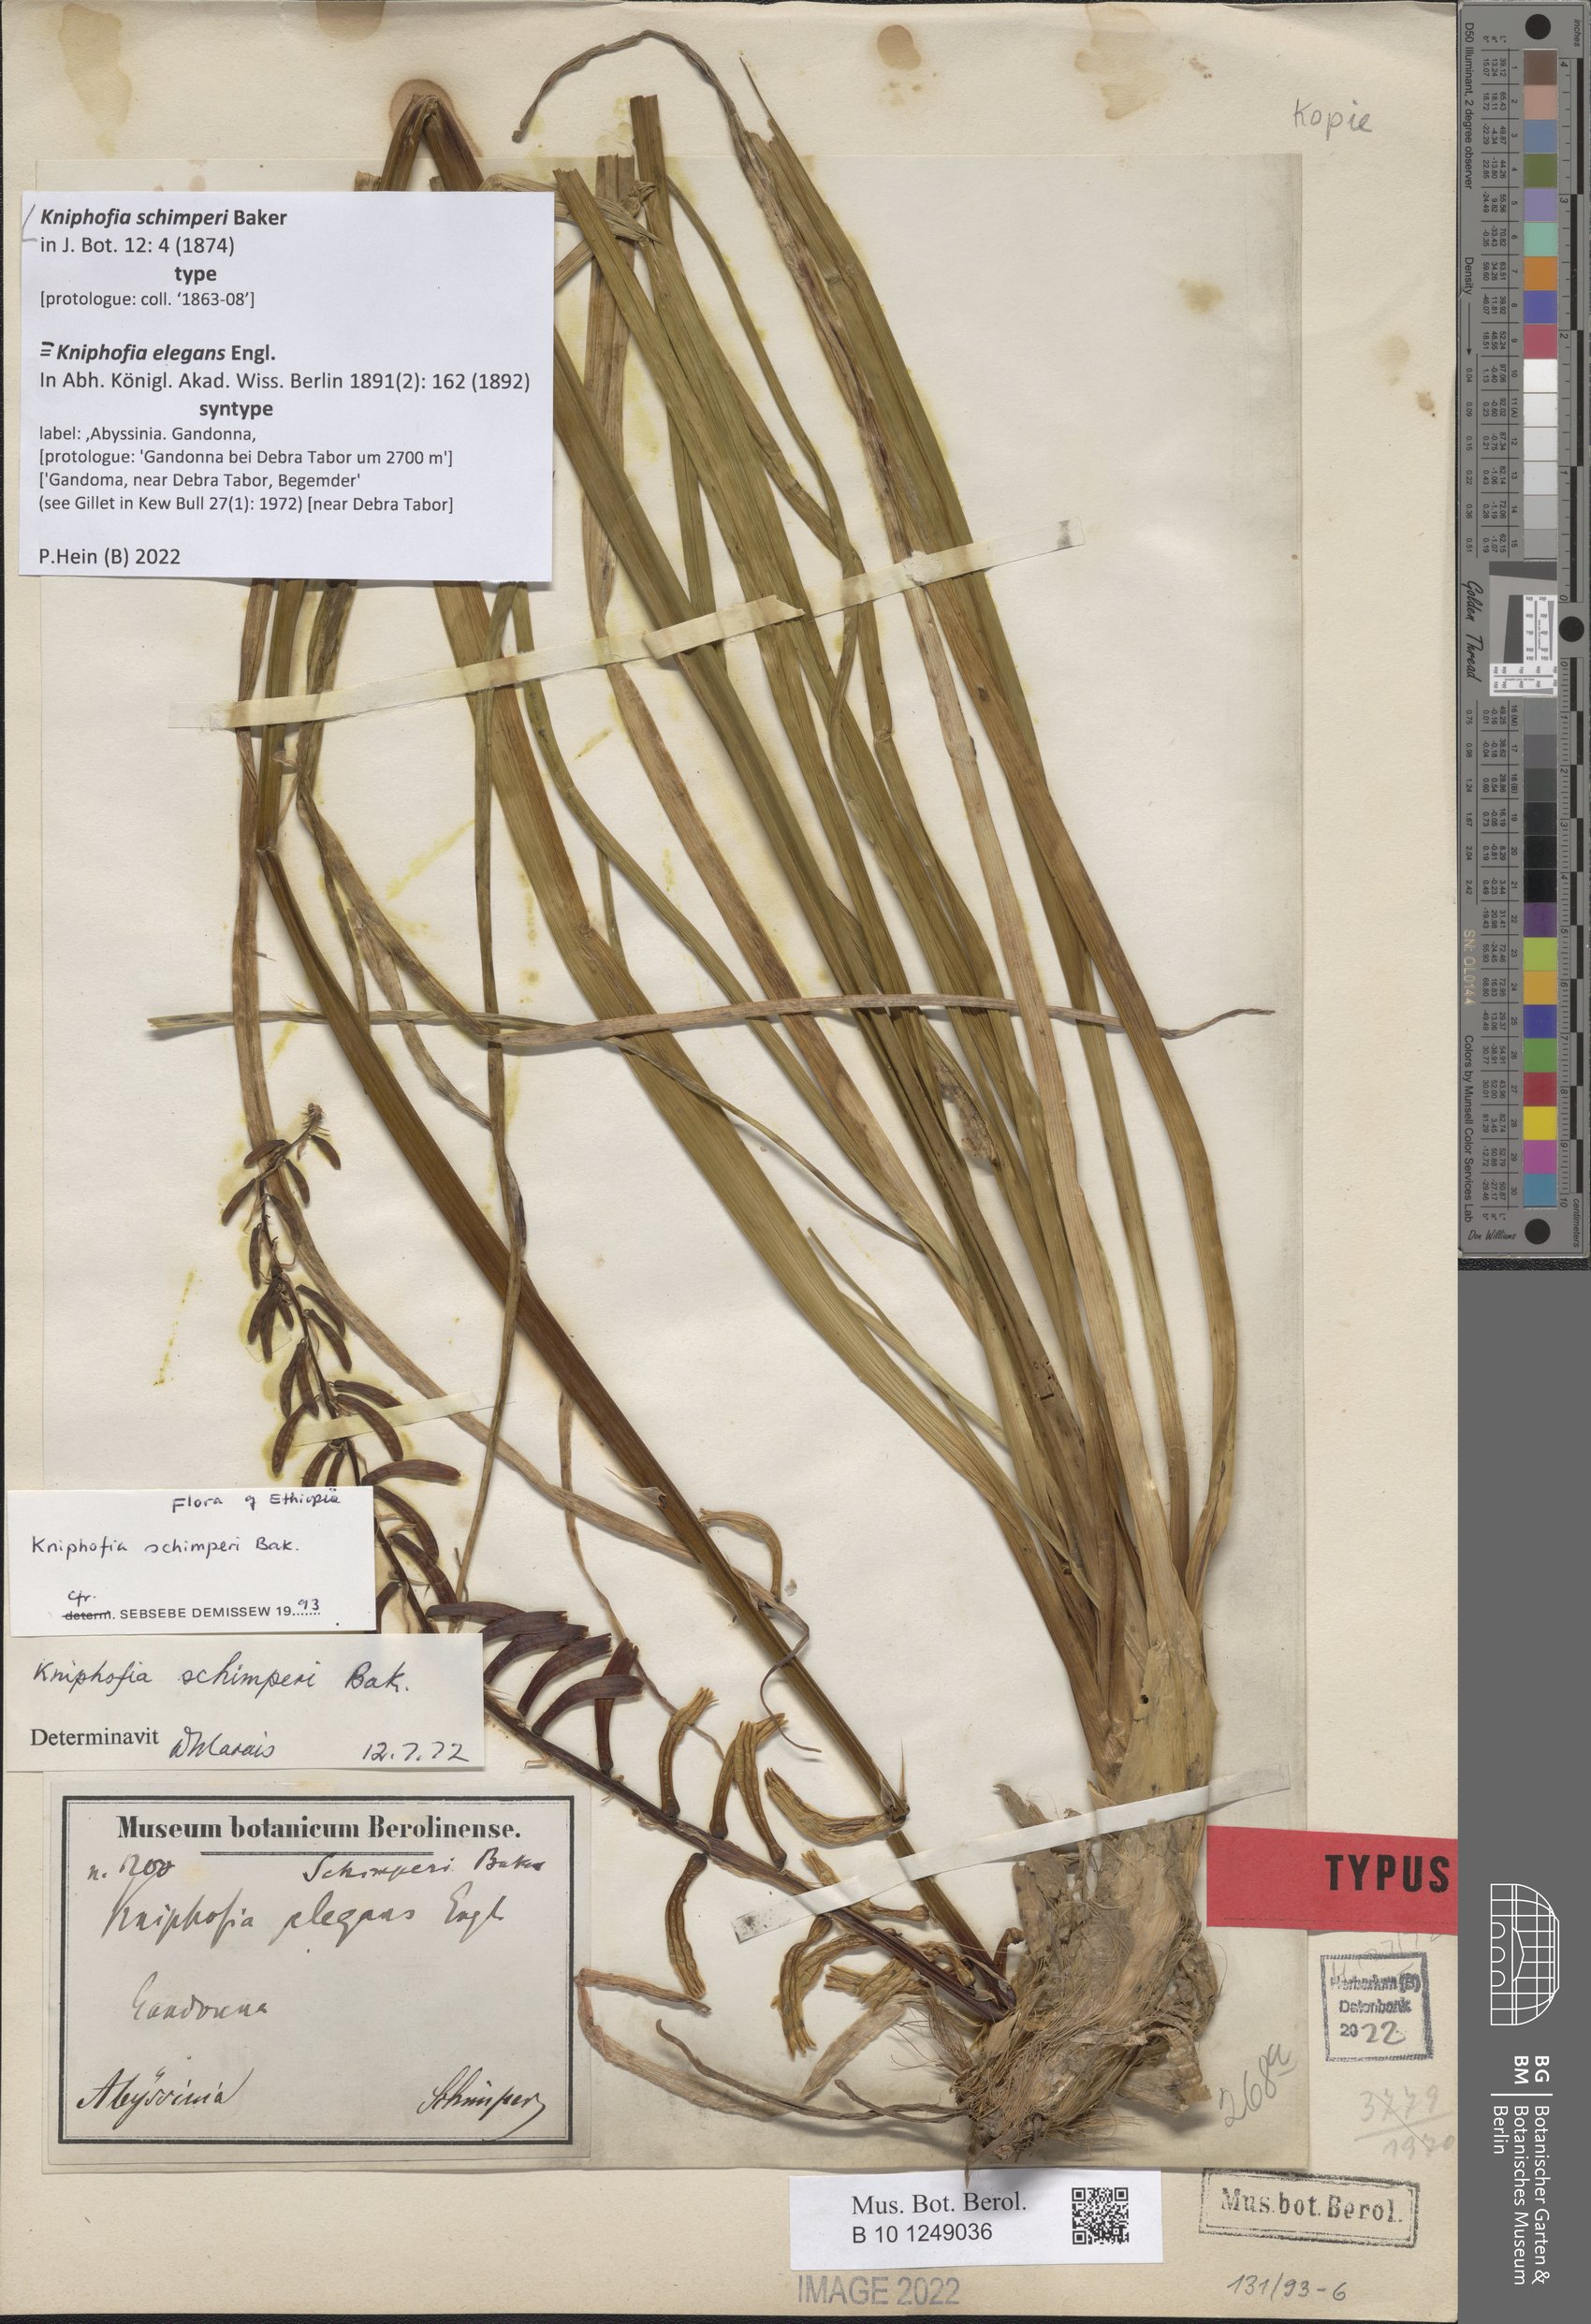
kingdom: Plantae
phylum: Tracheophyta
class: Liliopsida
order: Asparagales
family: Asphodelaceae
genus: Kniphofia
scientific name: Kniphofia schimperi
